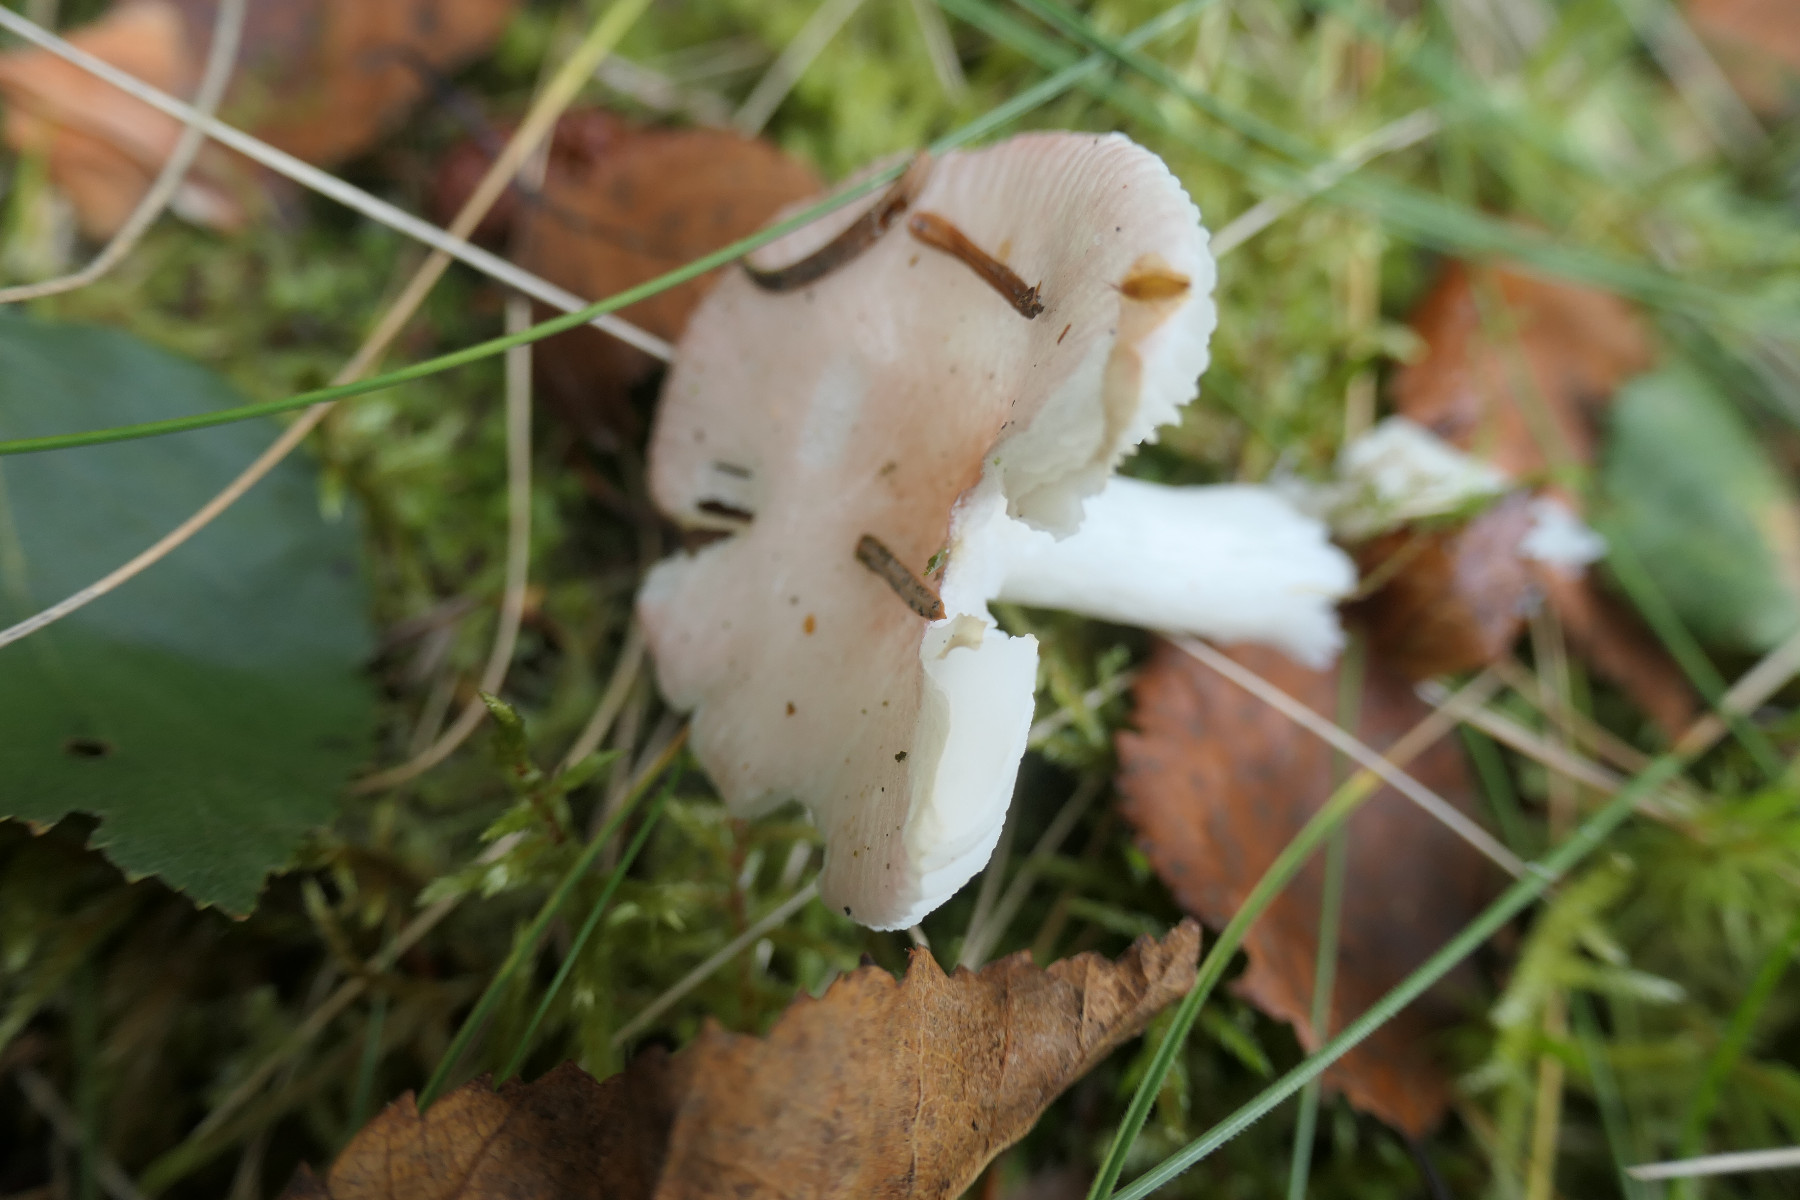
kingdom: Fungi
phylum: Basidiomycota
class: Agaricomycetes
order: Russulales
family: Russulaceae
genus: Russula
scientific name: Russula betularum
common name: bleg gift-skørhat
